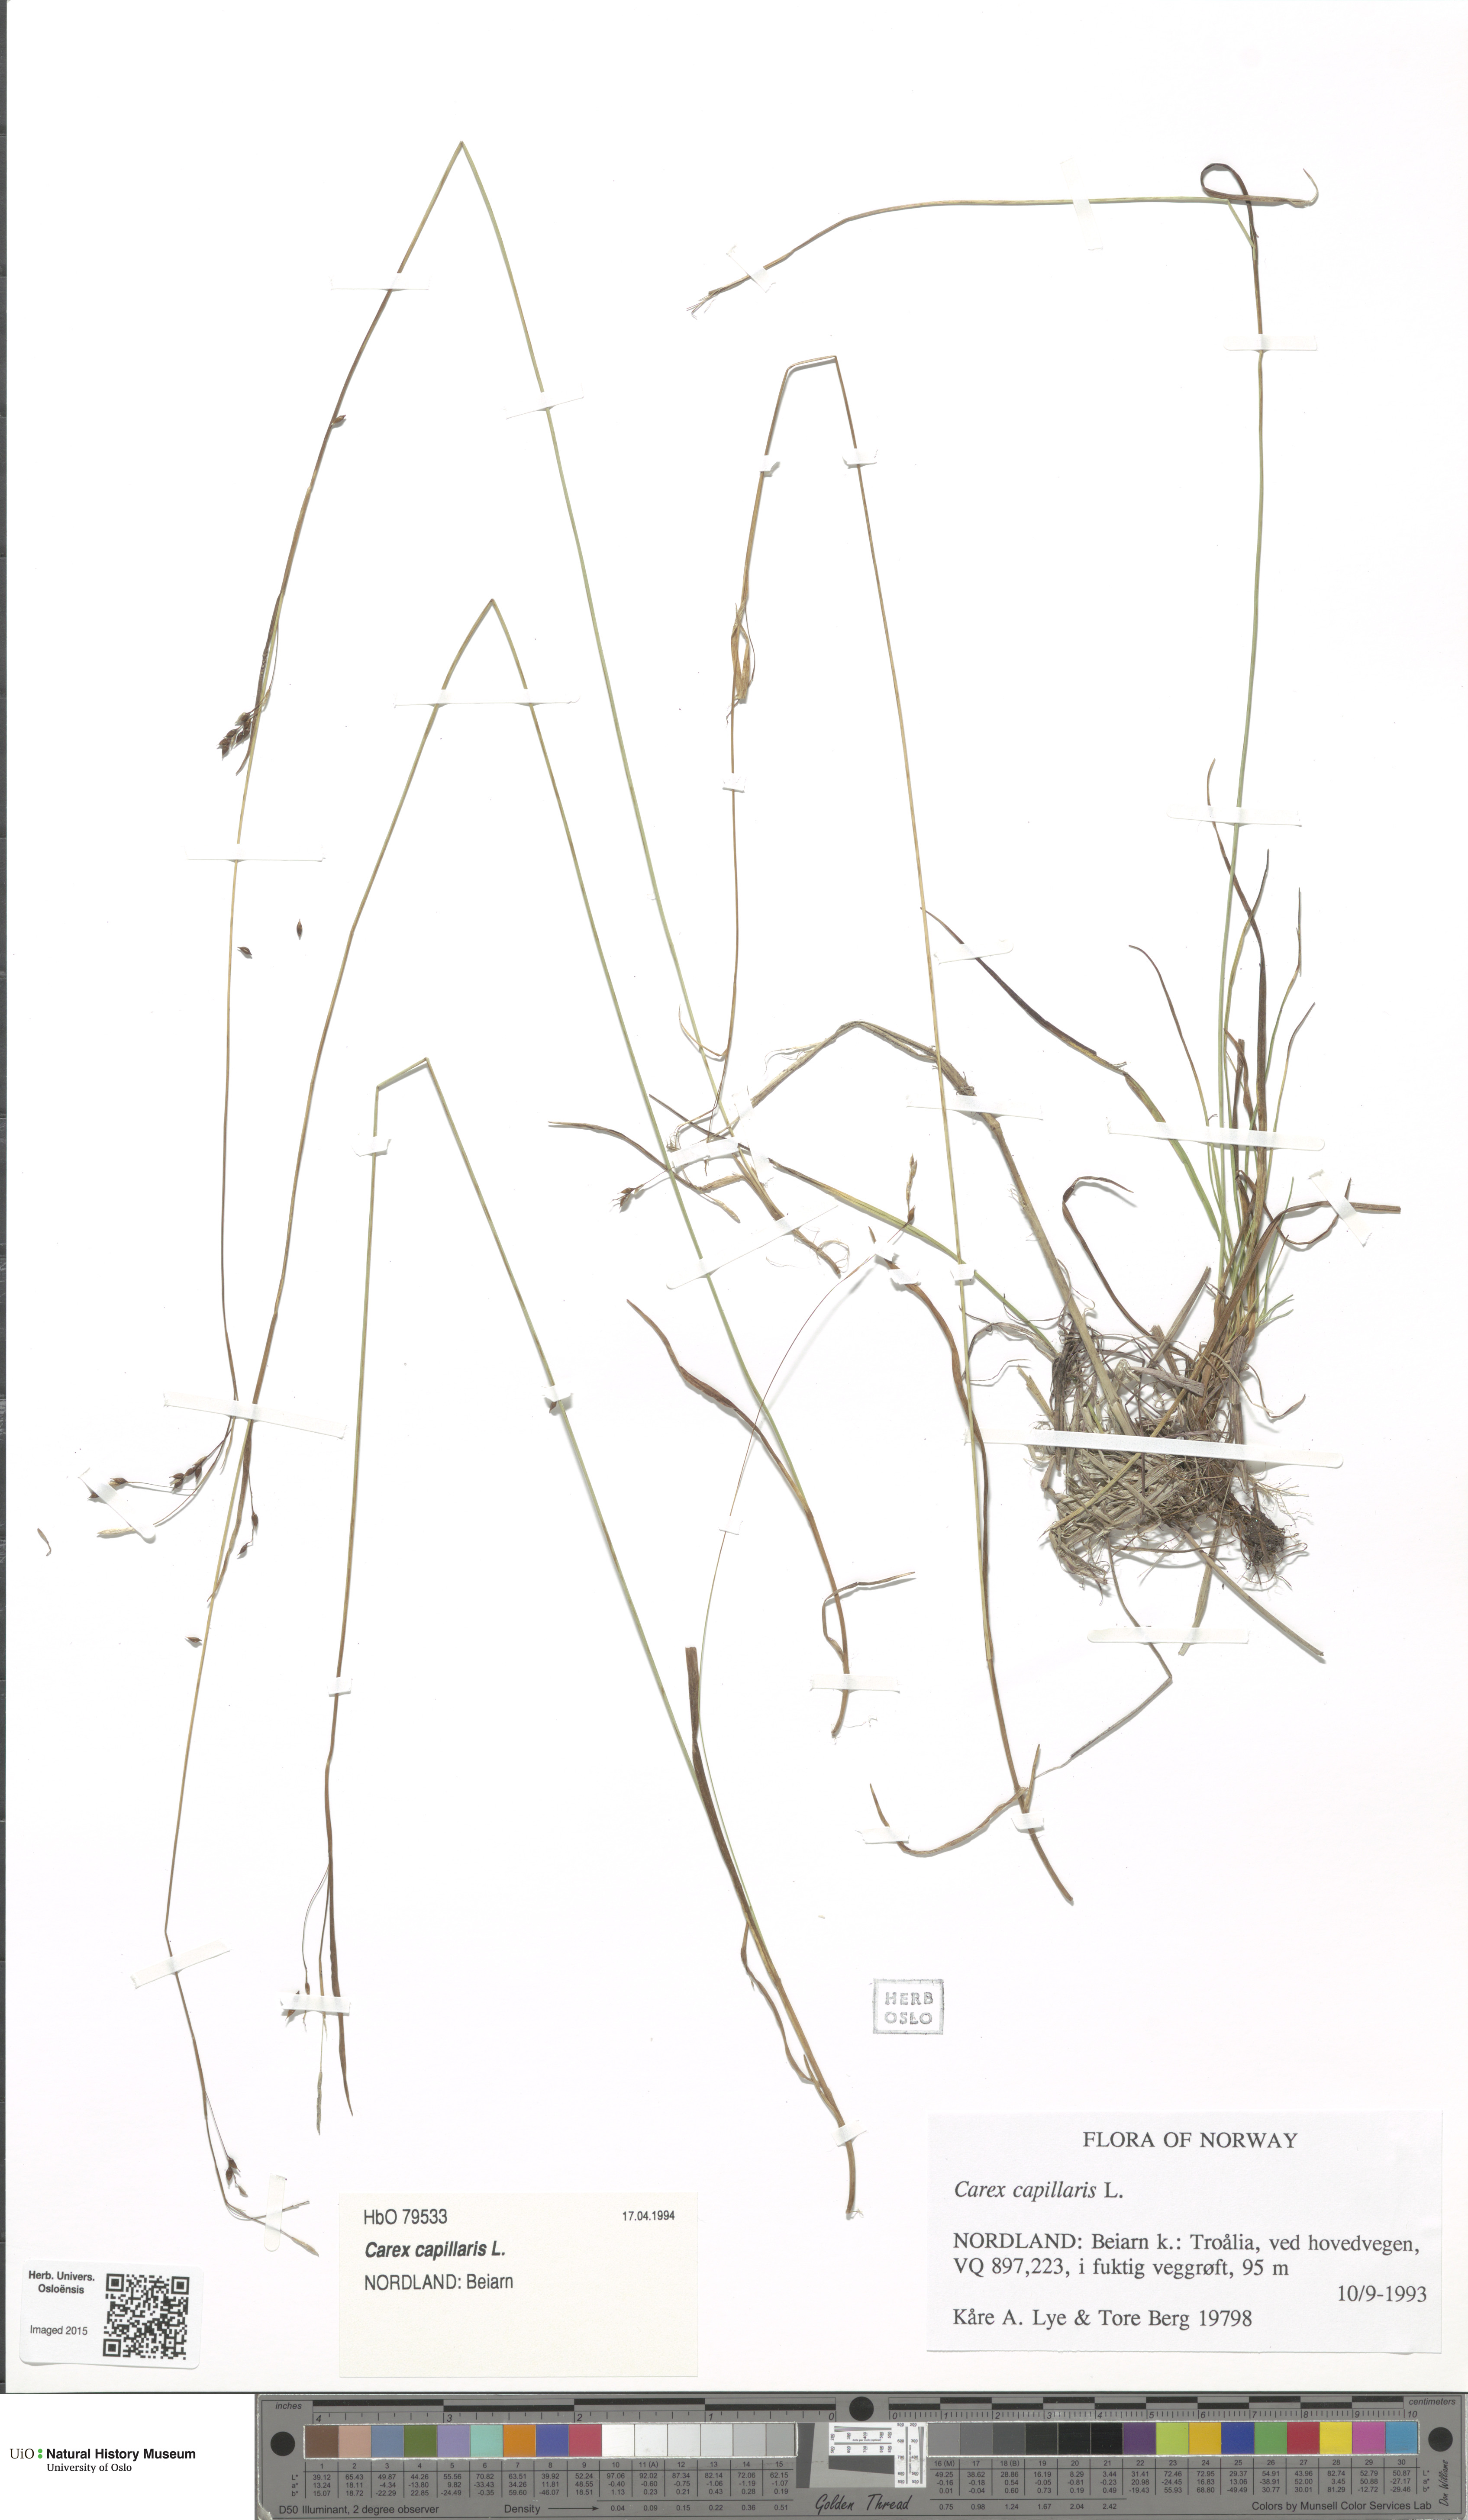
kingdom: Plantae
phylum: Tracheophyta
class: Liliopsida
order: Poales
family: Cyperaceae
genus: Carex
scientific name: Carex capillaris
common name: Hair sedge
